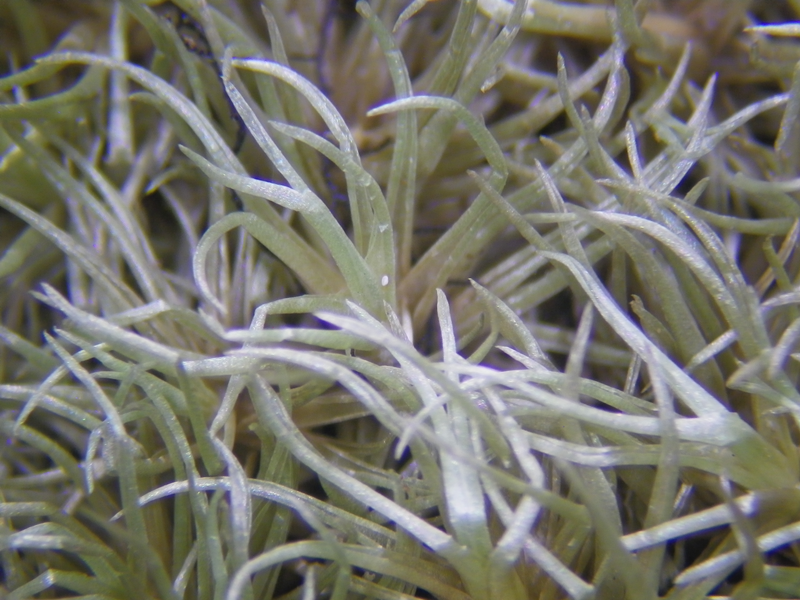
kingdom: Plantae
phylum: Bryophyta
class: Bryopsida
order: Dicranales
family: Leucobryaceae
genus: Leucobryum
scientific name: Leucobryum humillimum
